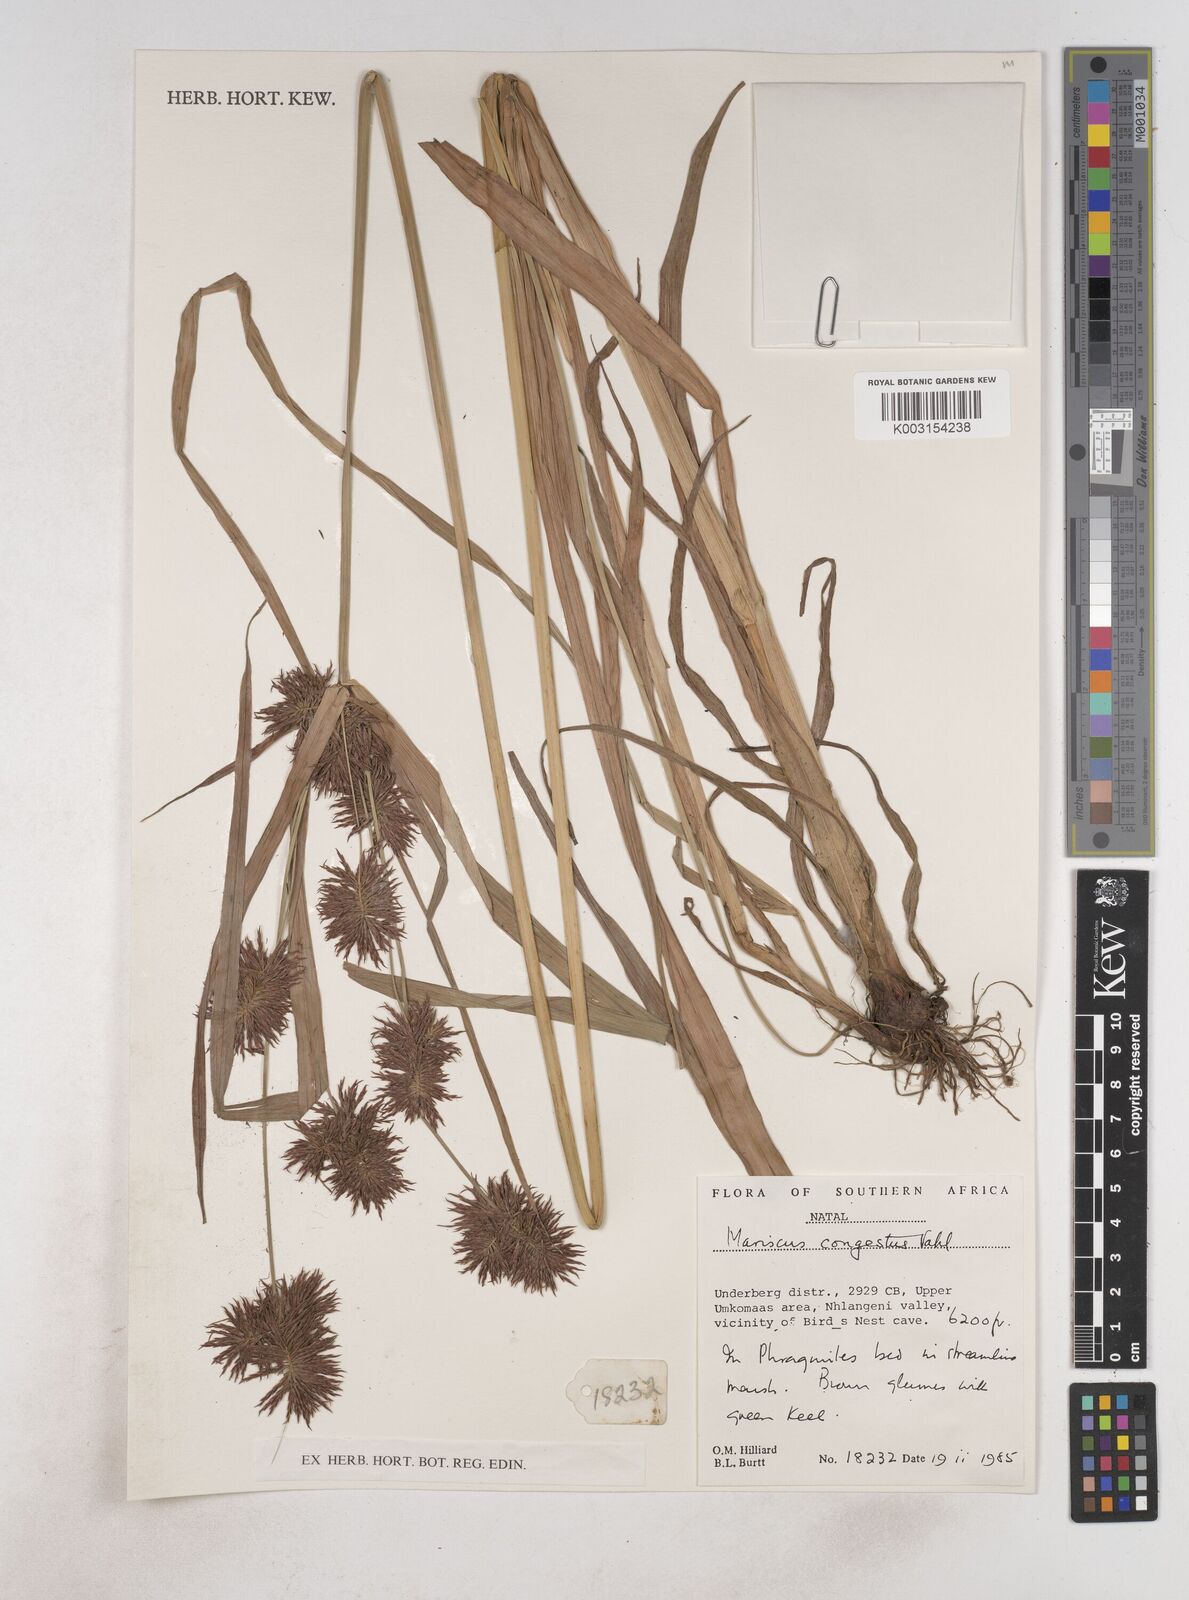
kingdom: Plantae
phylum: Tracheophyta
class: Liliopsida
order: Poales
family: Cyperaceae
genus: Cyperus
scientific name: Cyperus congestus
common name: Dense flat sedge
